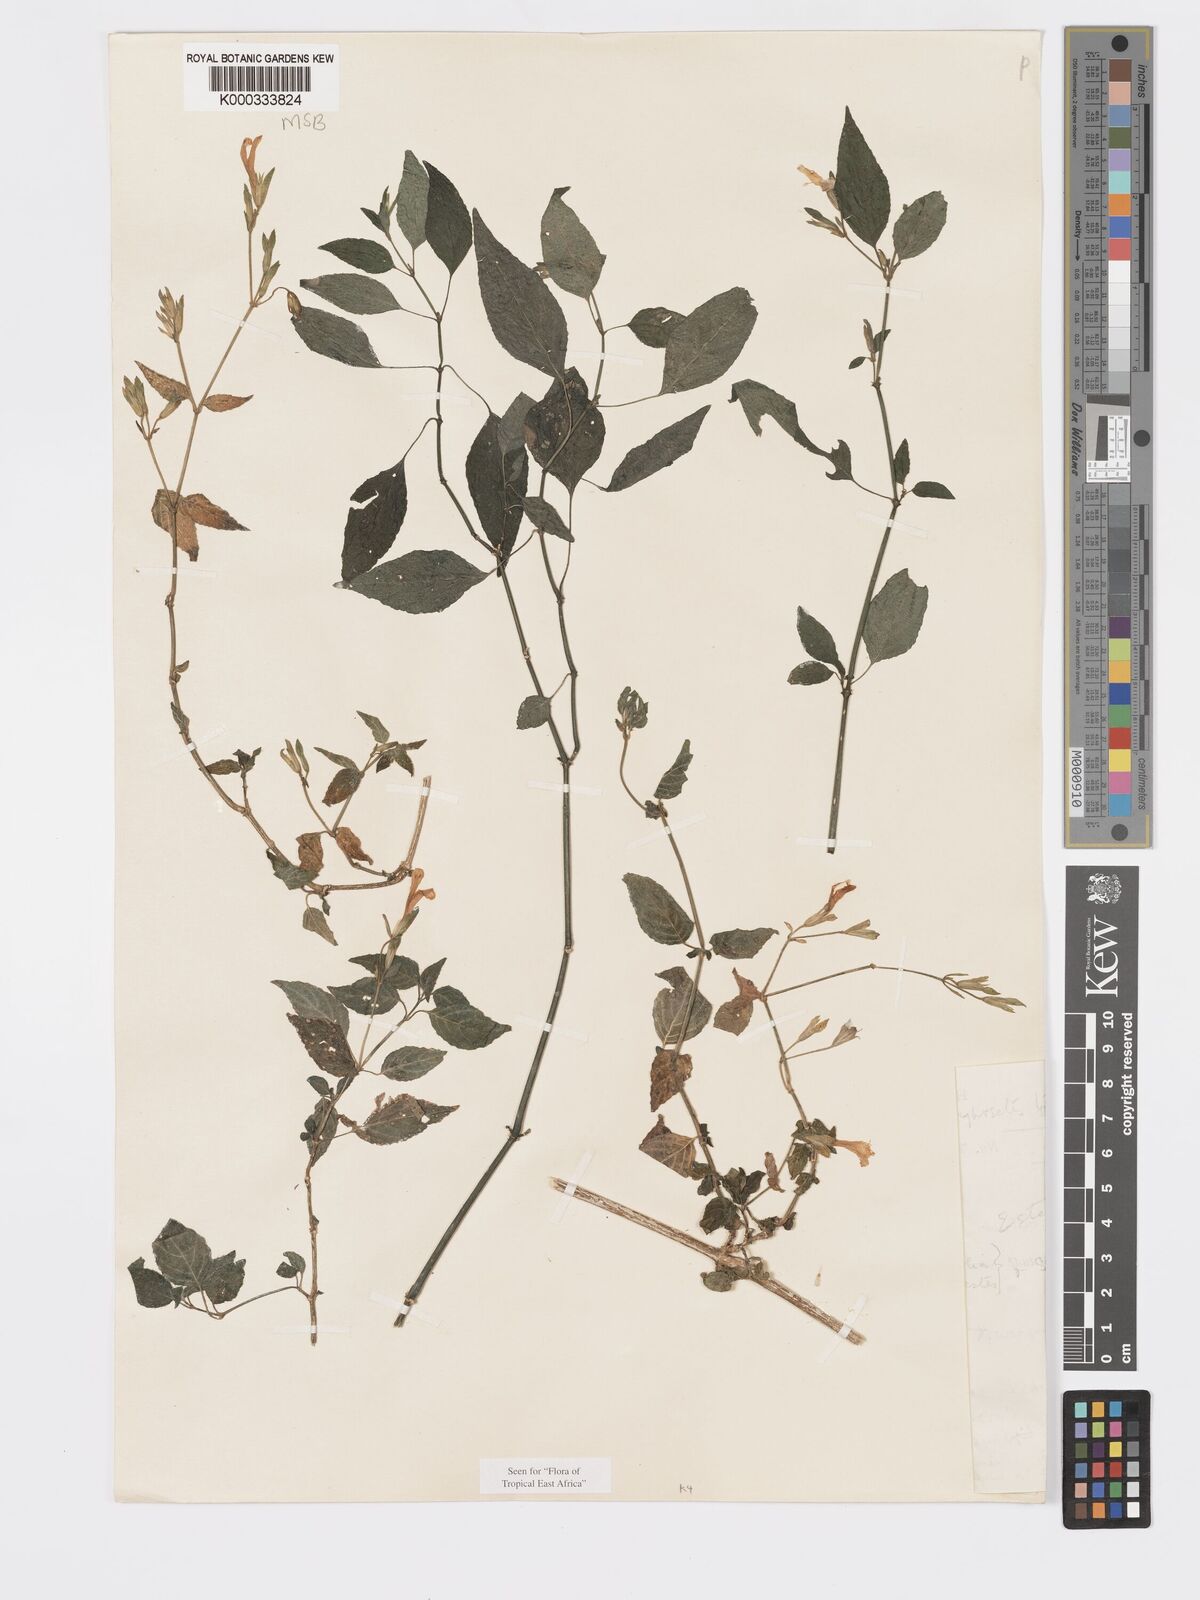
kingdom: Plantae
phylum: Tracheophyta
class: Magnoliopsida
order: Lamiales
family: Acanthaceae
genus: Hypoestes
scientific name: Hypoestes triflora
